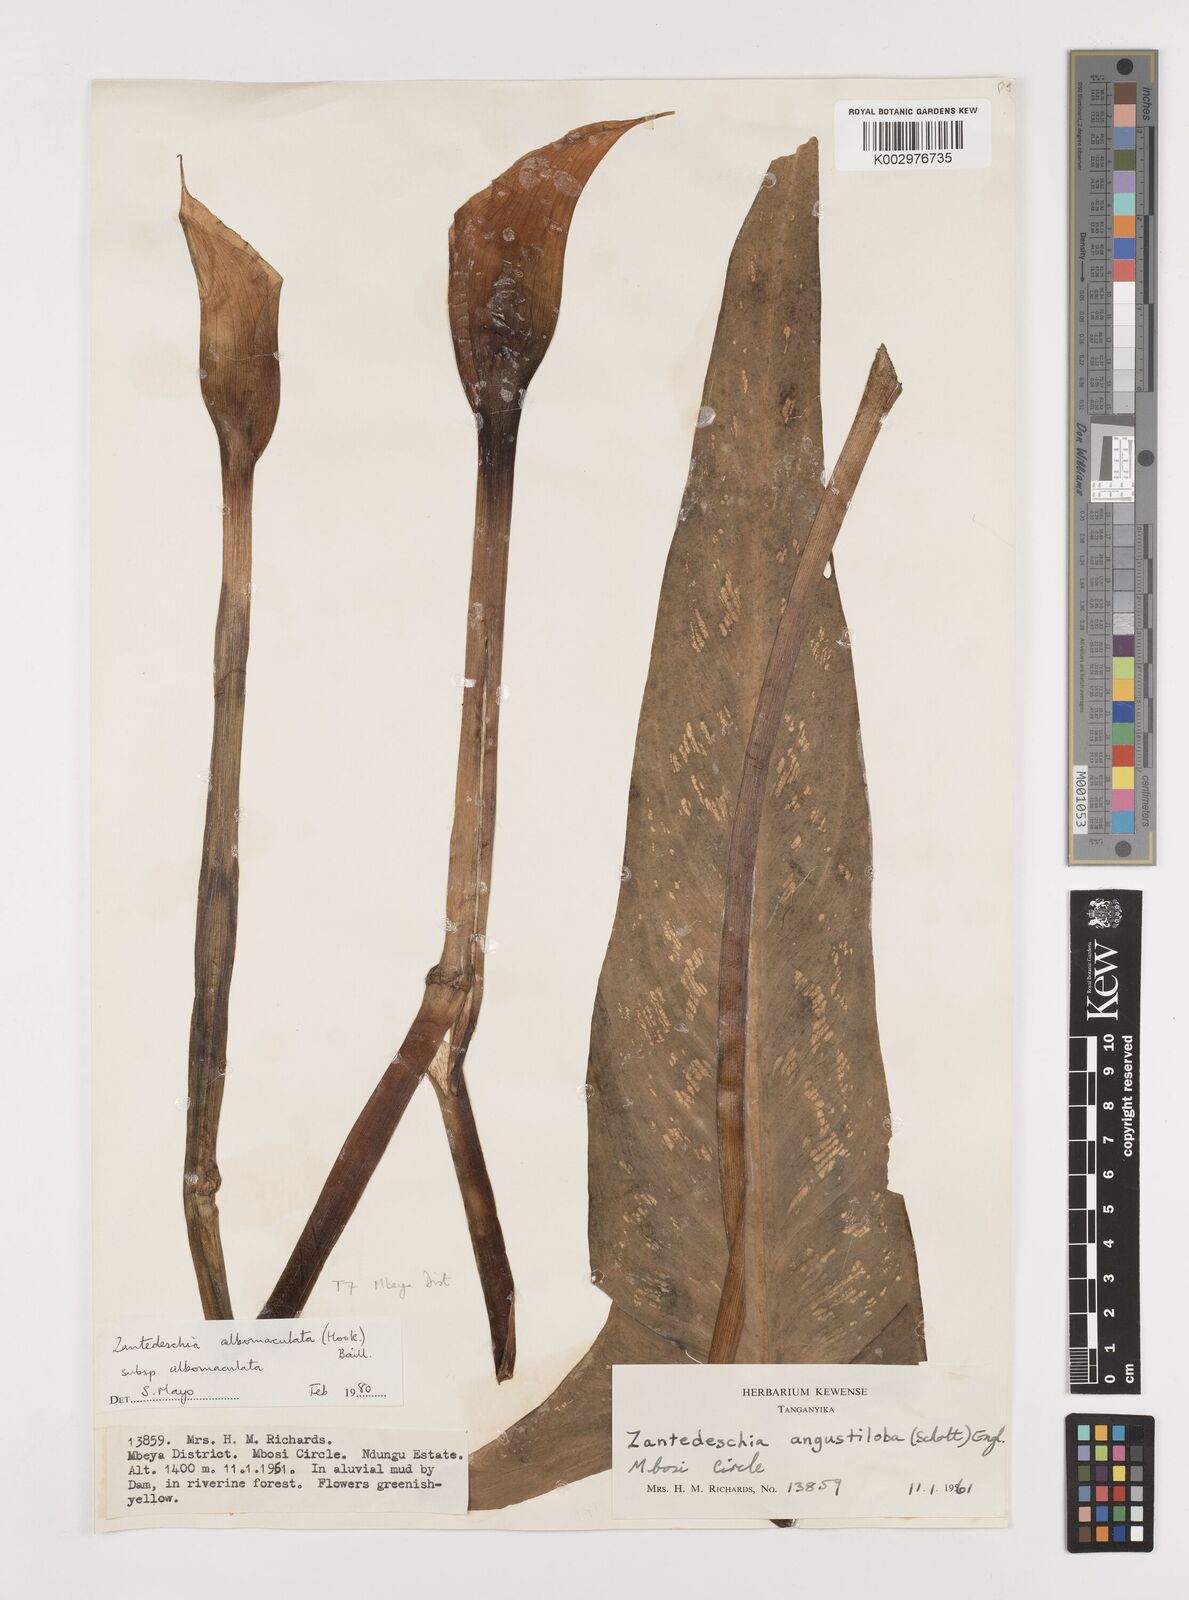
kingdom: Plantae
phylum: Tracheophyta
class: Liliopsida
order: Alismatales
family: Araceae
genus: Zantedeschia
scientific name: Zantedeschia albomaculata
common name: Spotted calla lily
